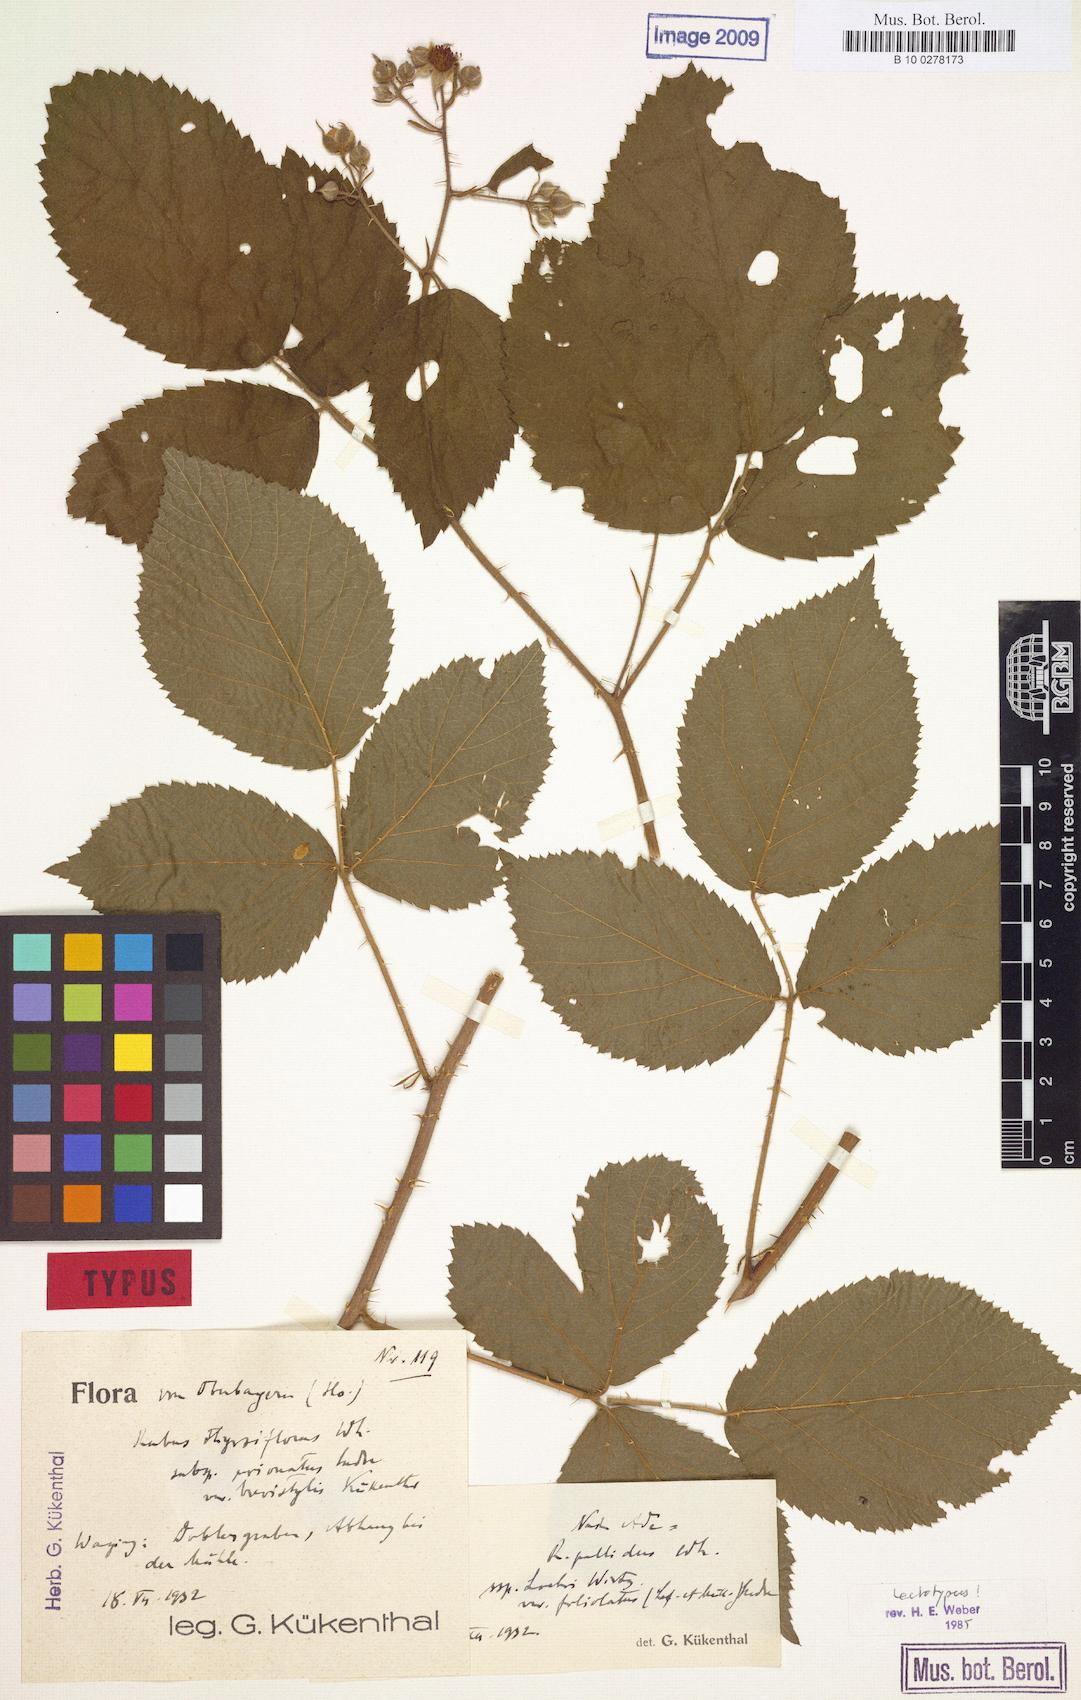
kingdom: Plantae
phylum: Tracheophyta
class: Magnoliopsida
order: Rosales
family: Rosaceae
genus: Rubus
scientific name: Rubus thyrsiflorus
